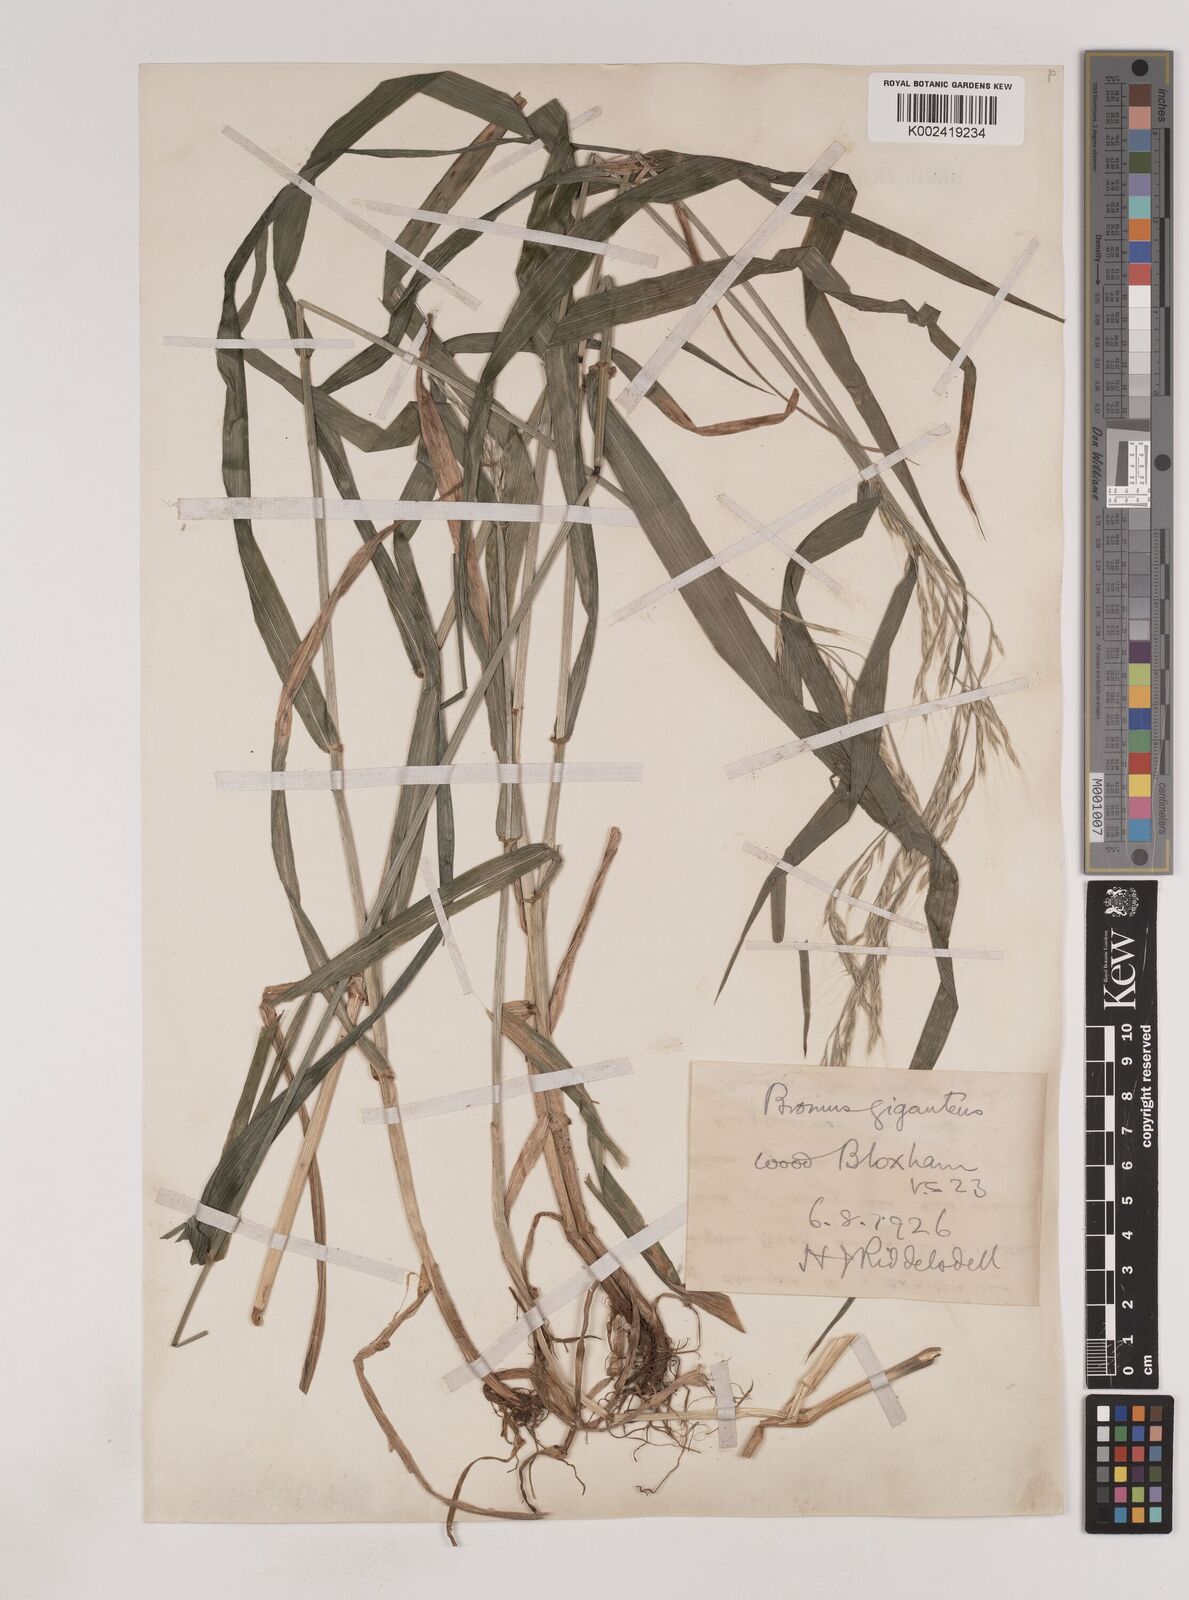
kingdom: Plantae
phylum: Tracheophyta
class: Liliopsida
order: Poales
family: Poaceae
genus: Lolium
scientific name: Lolium giganteum
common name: Giant fescue
